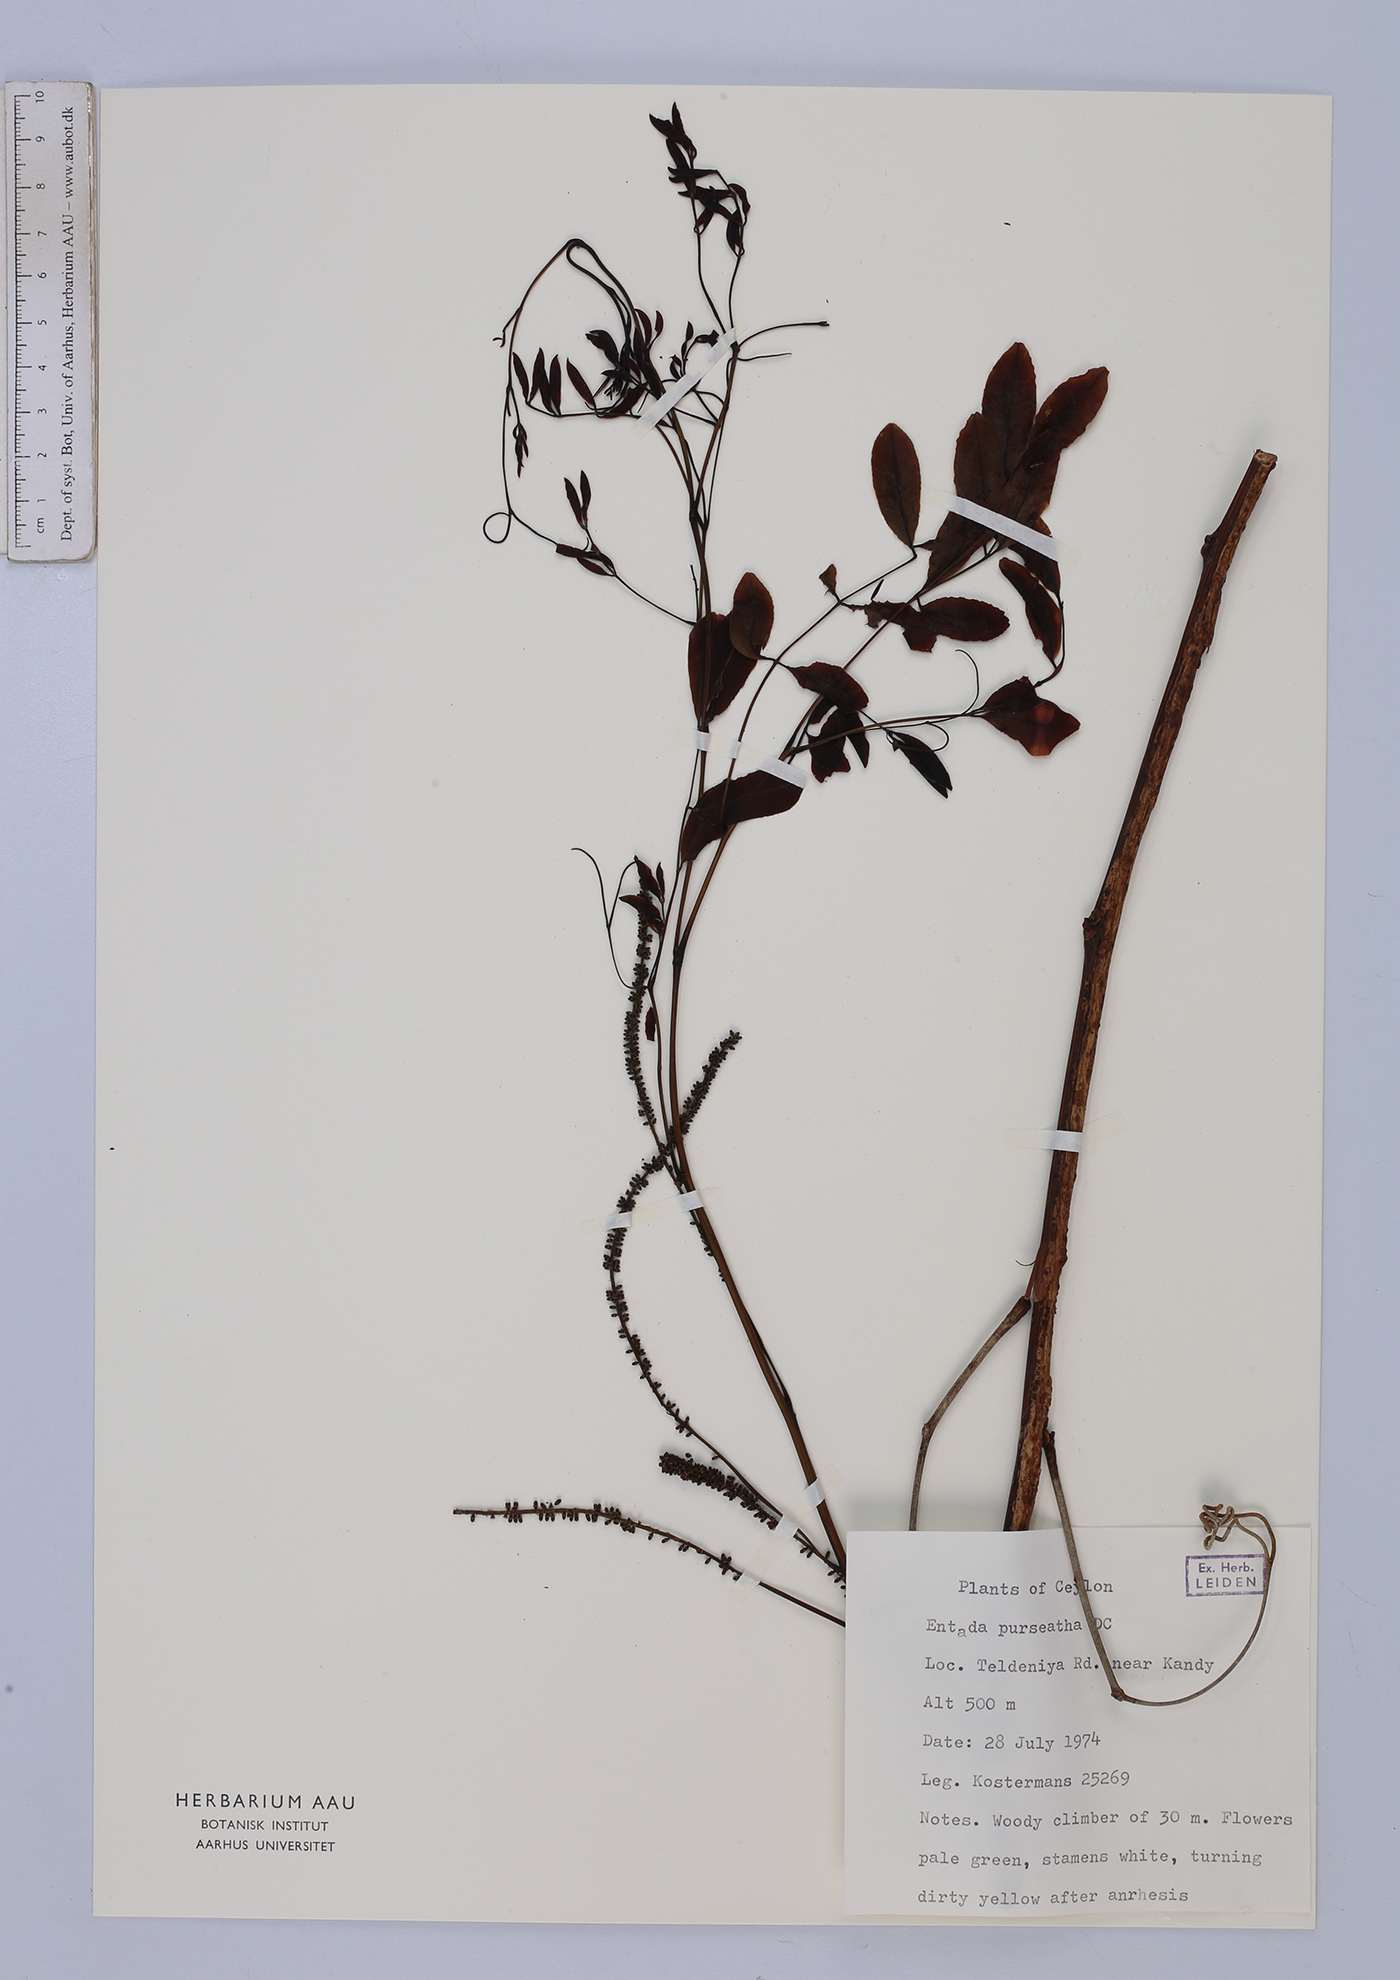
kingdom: Plantae
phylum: Tracheophyta
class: Magnoliopsida
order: Fabales
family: Fabaceae
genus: Entada
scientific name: Entada rheedei
